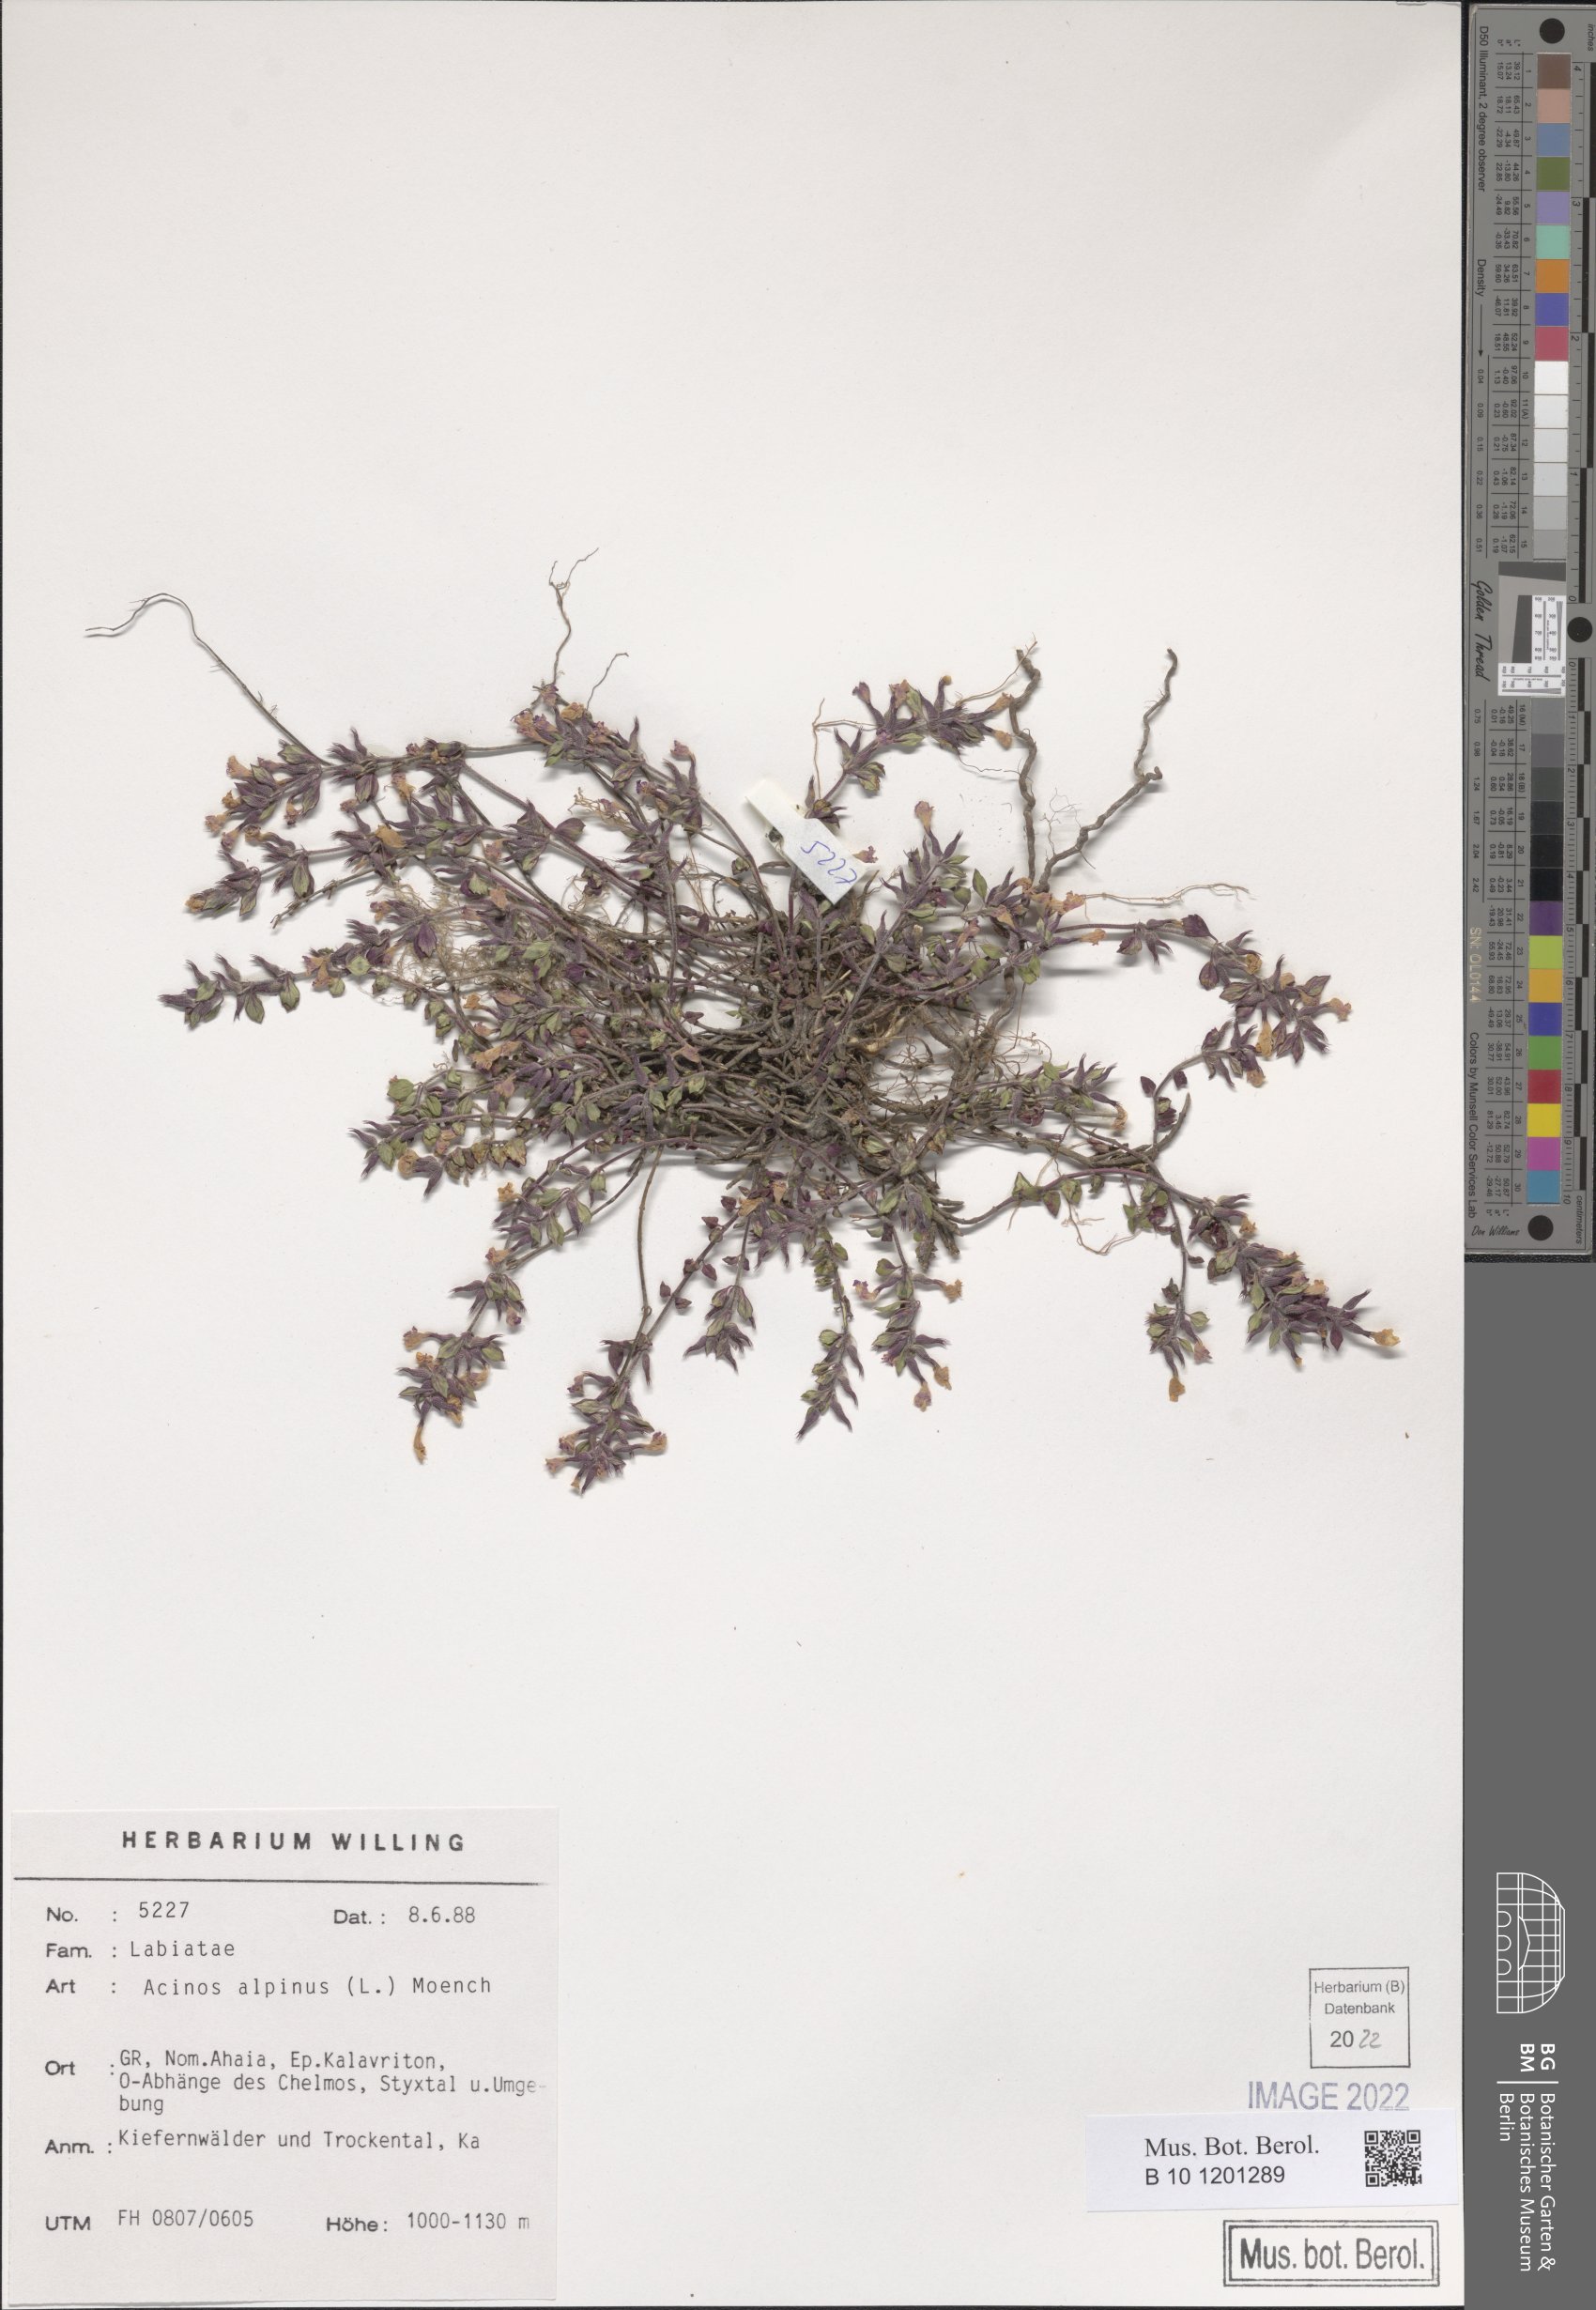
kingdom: Plantae
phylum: Tracheophyta
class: Magnoliopsida
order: Lamiales
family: Lamiaceae
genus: Clinopodium
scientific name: Clinopodium alpinum
